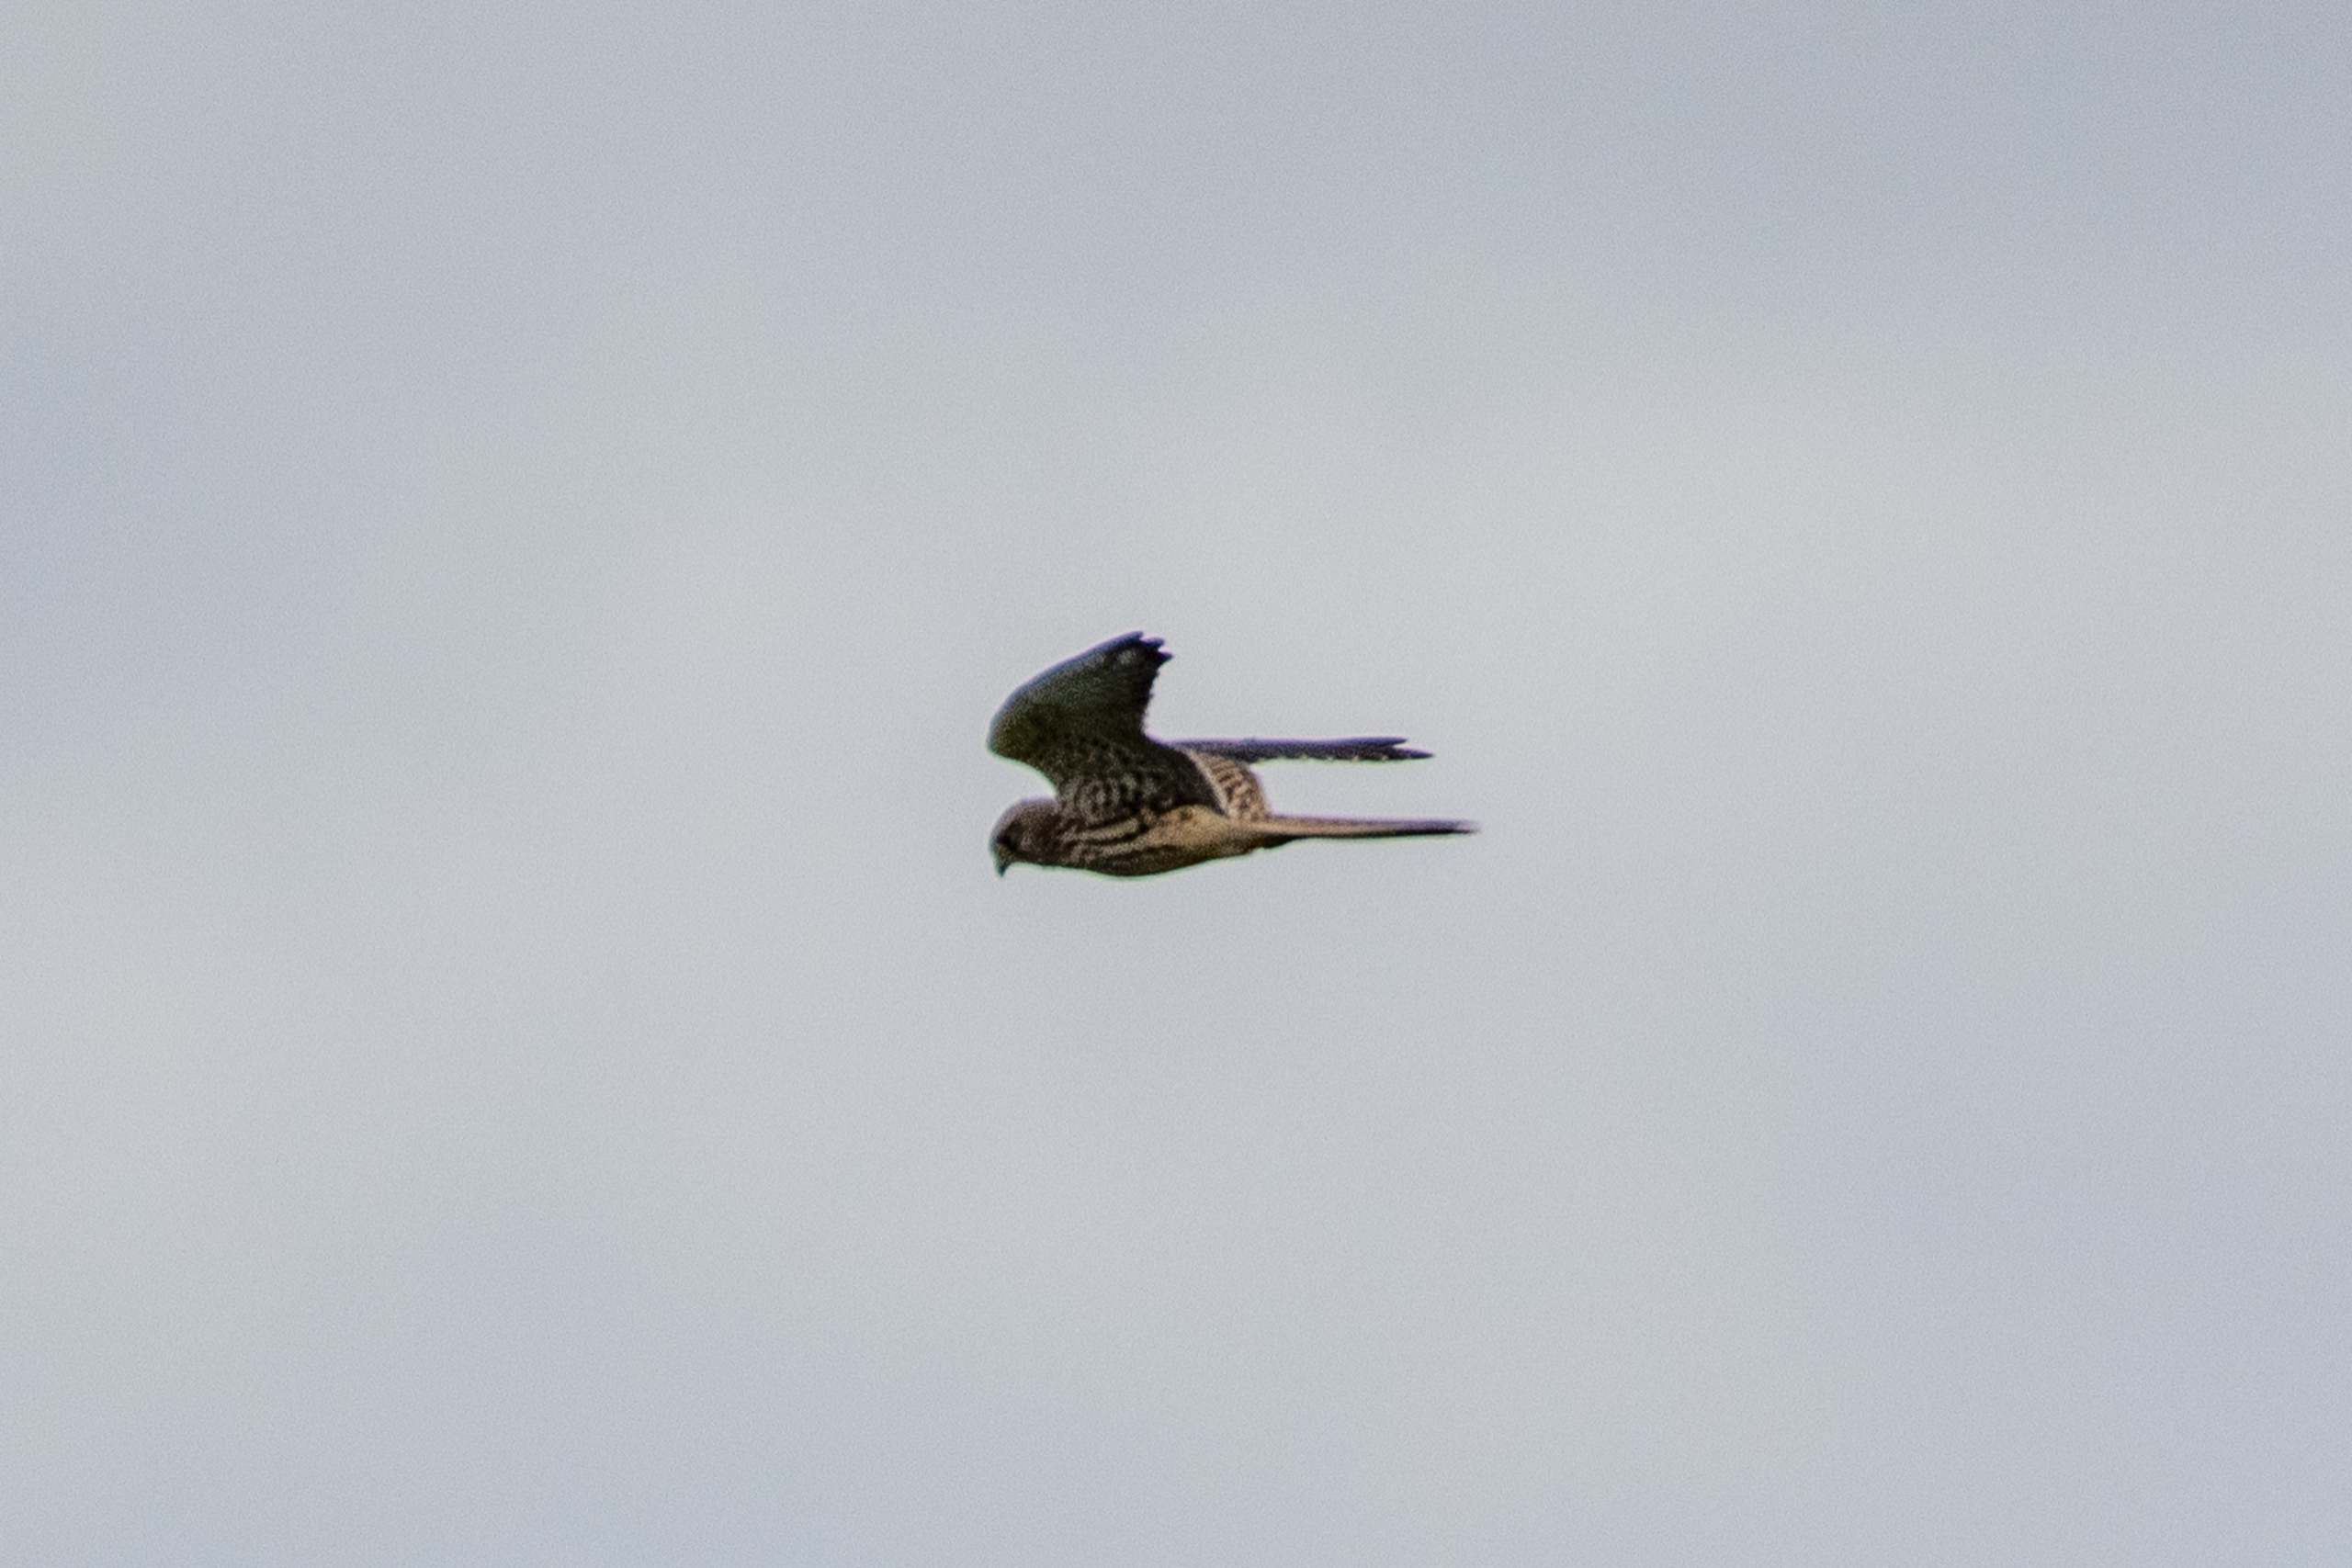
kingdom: Animalia
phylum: Chordata
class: Aves
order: Falconiformes
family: Falconidae
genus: Falco
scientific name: Falco tinnunculus
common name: Tårnfalk
